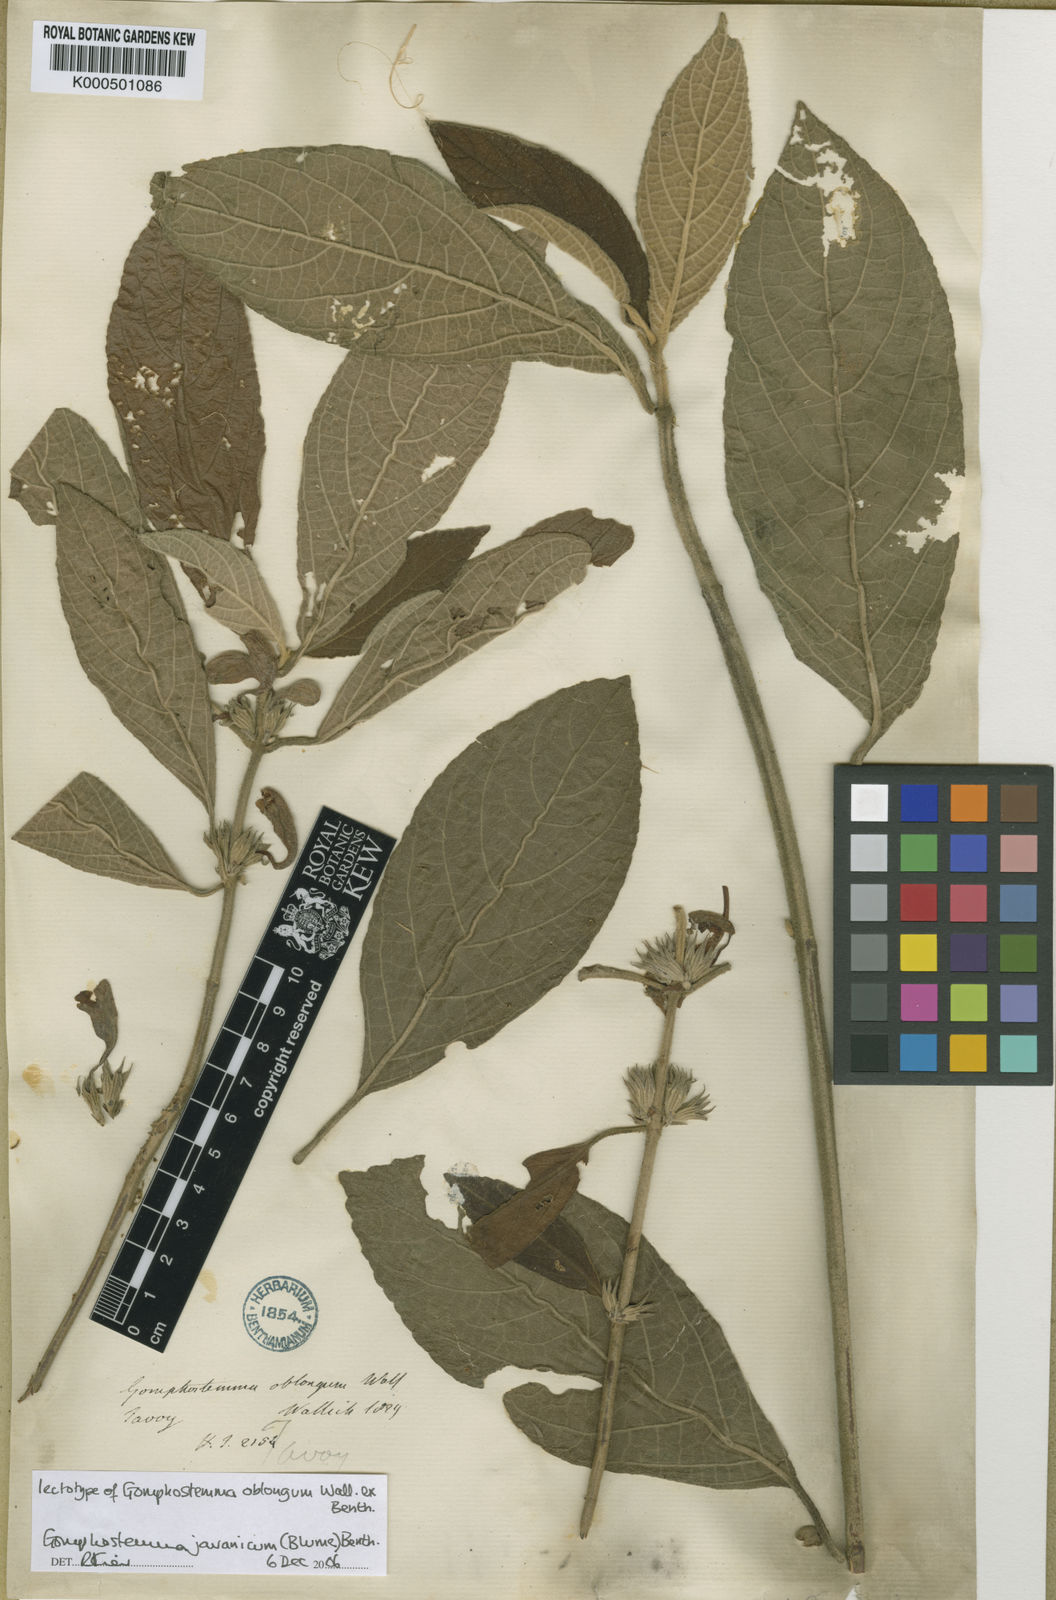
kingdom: Plantae
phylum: Tracheophyta
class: Magnoliopsida
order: Lamiales
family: Lamiaceae
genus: Gomphostemma
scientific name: Gomphostemma javanicum
